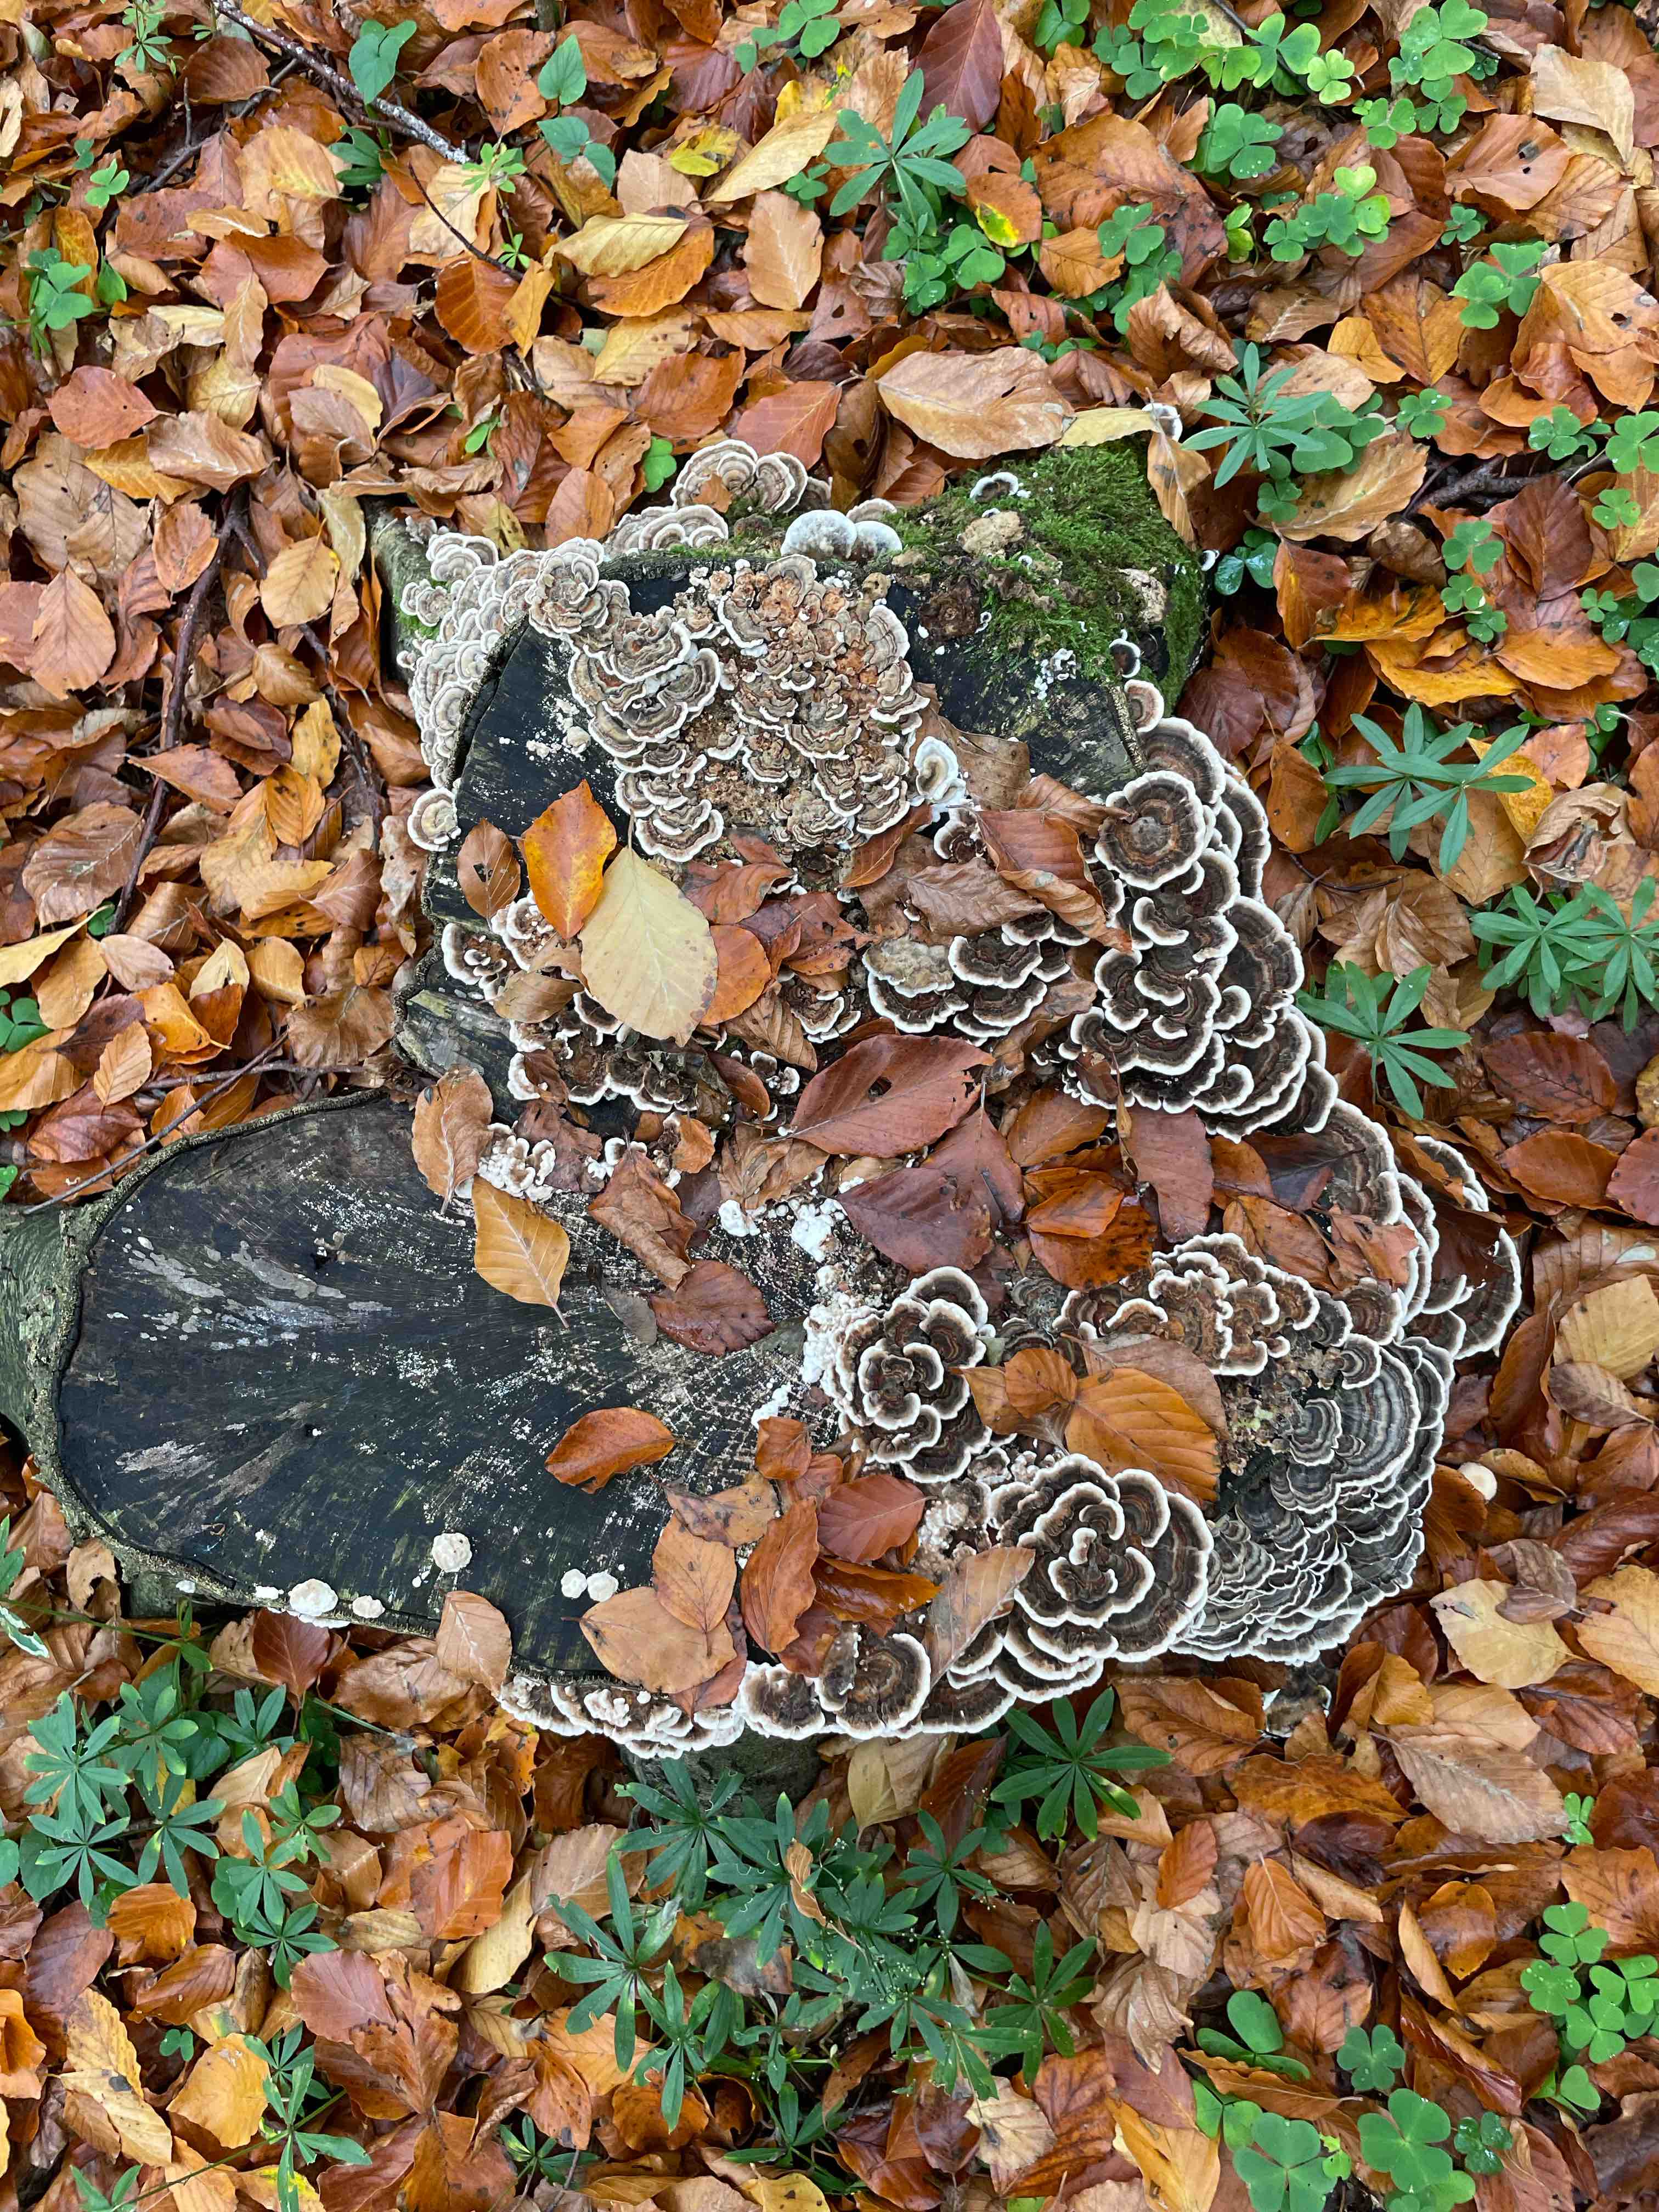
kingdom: Fungi
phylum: Basidiomycota
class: Agaricomycetes
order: Polyporales
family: Polyporaceae
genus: Trametes
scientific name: Trametes versicolor
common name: broget læderporesvamp
